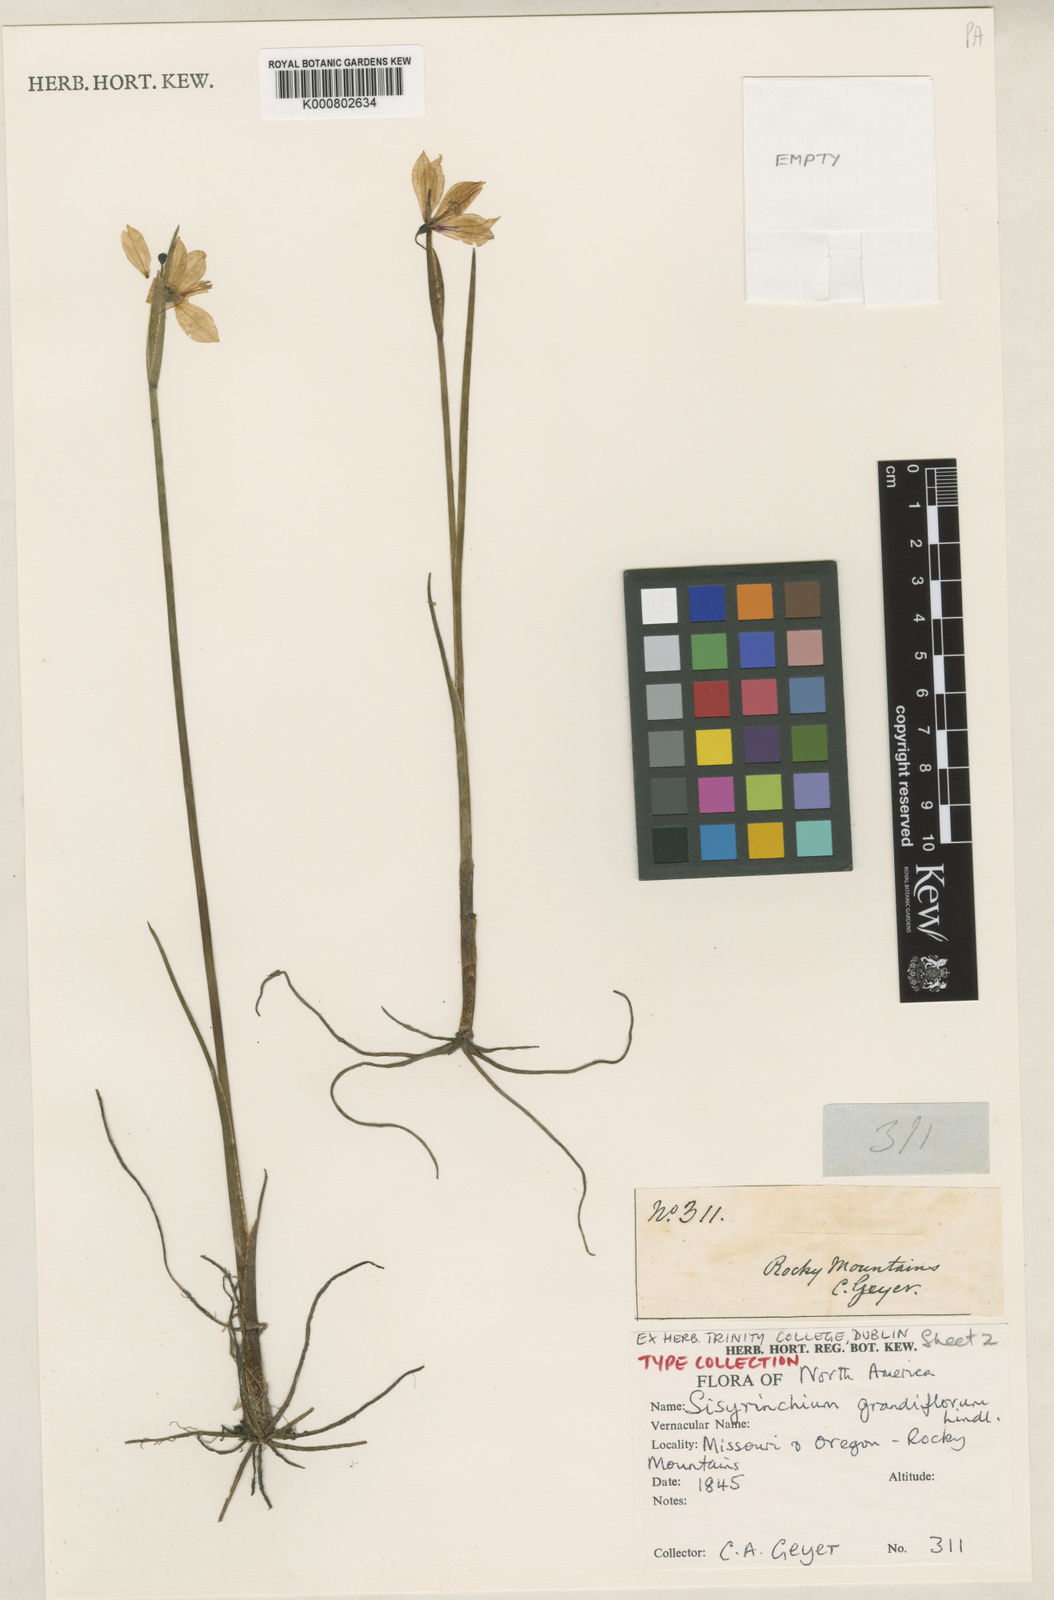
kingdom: Plantae
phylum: Tracheophyta
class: Liliopsida
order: Asparagales
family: Iridaceae
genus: Olsynium
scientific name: Olsynium douglasii
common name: Douglas' grasswidow
